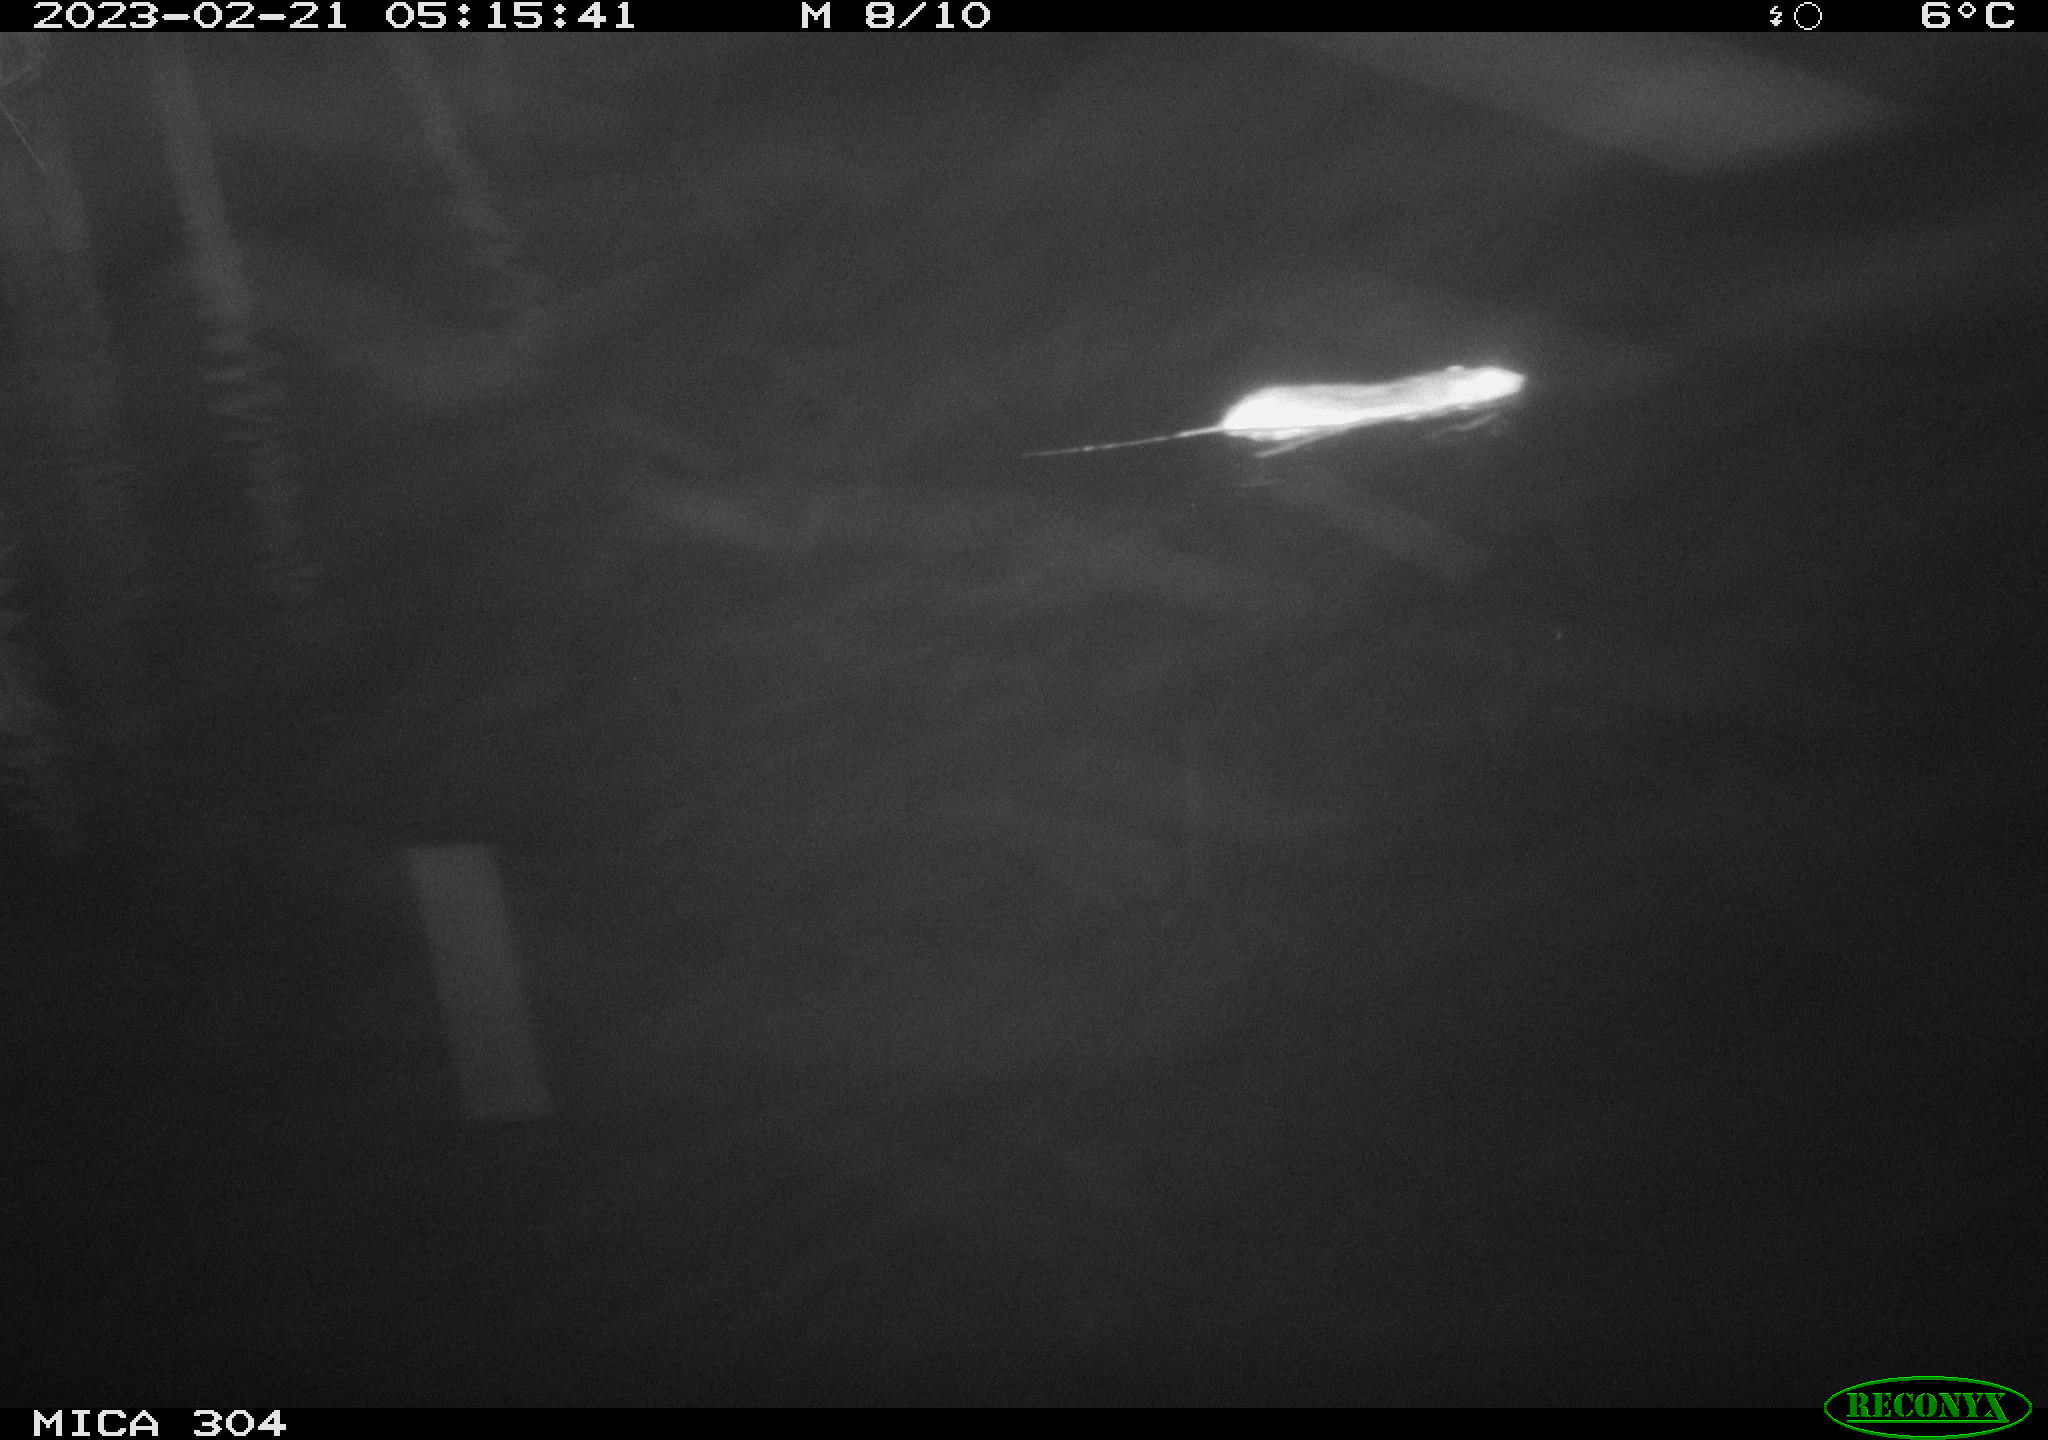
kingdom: Animalia
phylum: Chordata
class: Mammalia
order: Rodentia
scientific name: Rodentia
